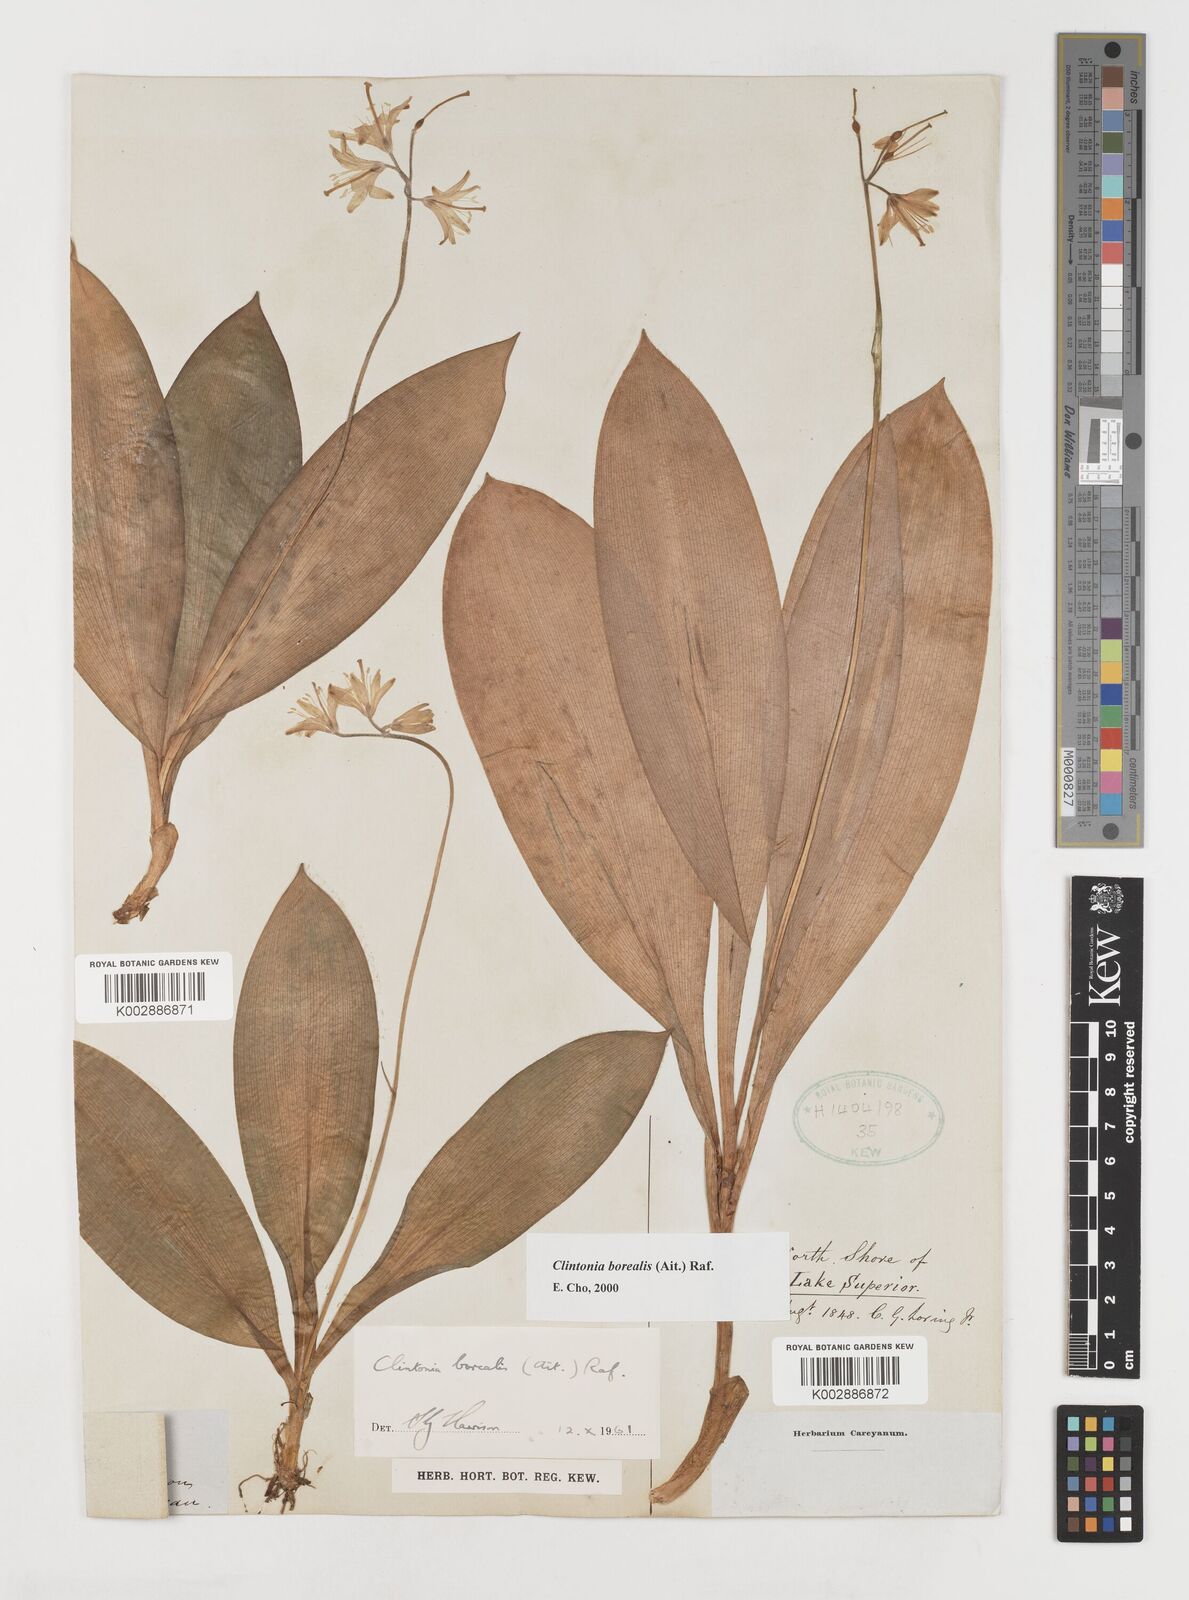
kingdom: Plantae
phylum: Tracheophyta
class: Liliopsida
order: Liliales
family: Liliaceae
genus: Clintonia
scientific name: Clintonia borealis
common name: Yellow clintonia
